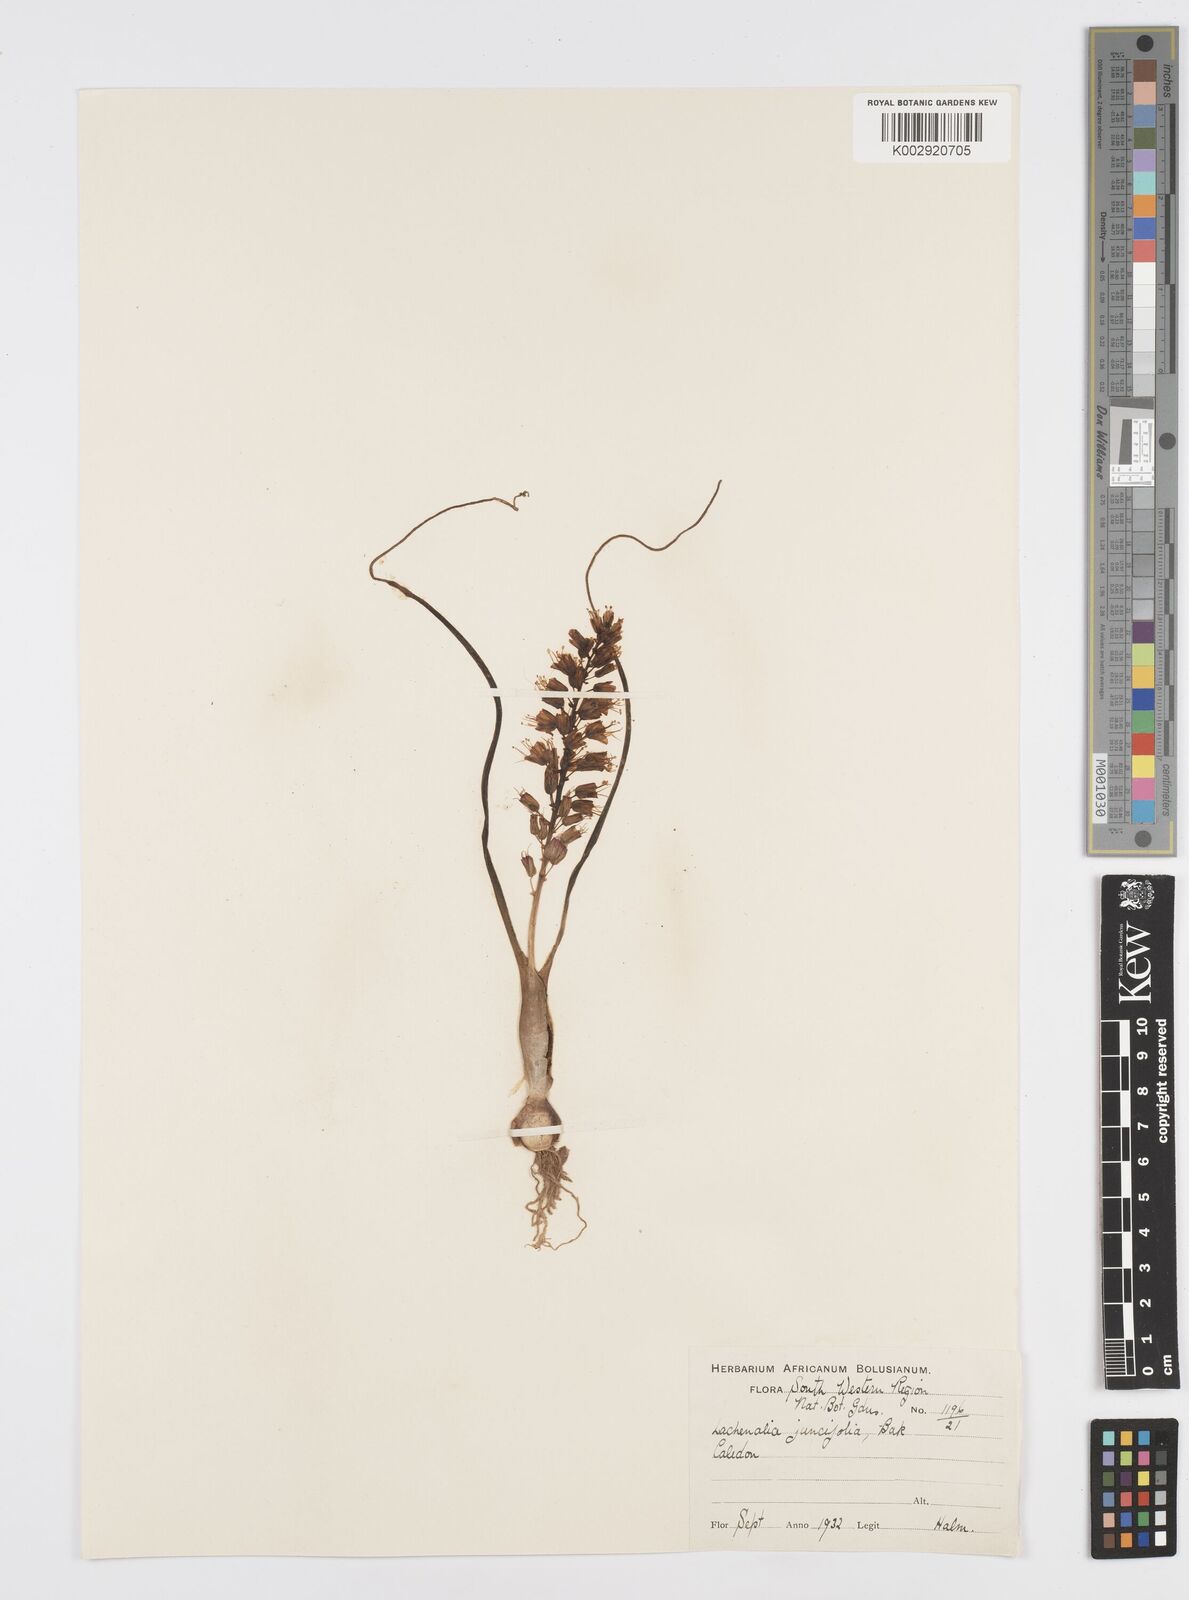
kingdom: Plantae
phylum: Tracheophyta
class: Liliopsida
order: Asparagales
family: Asparagaceae
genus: Lachenalia
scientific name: Lachenalia juncifolia
